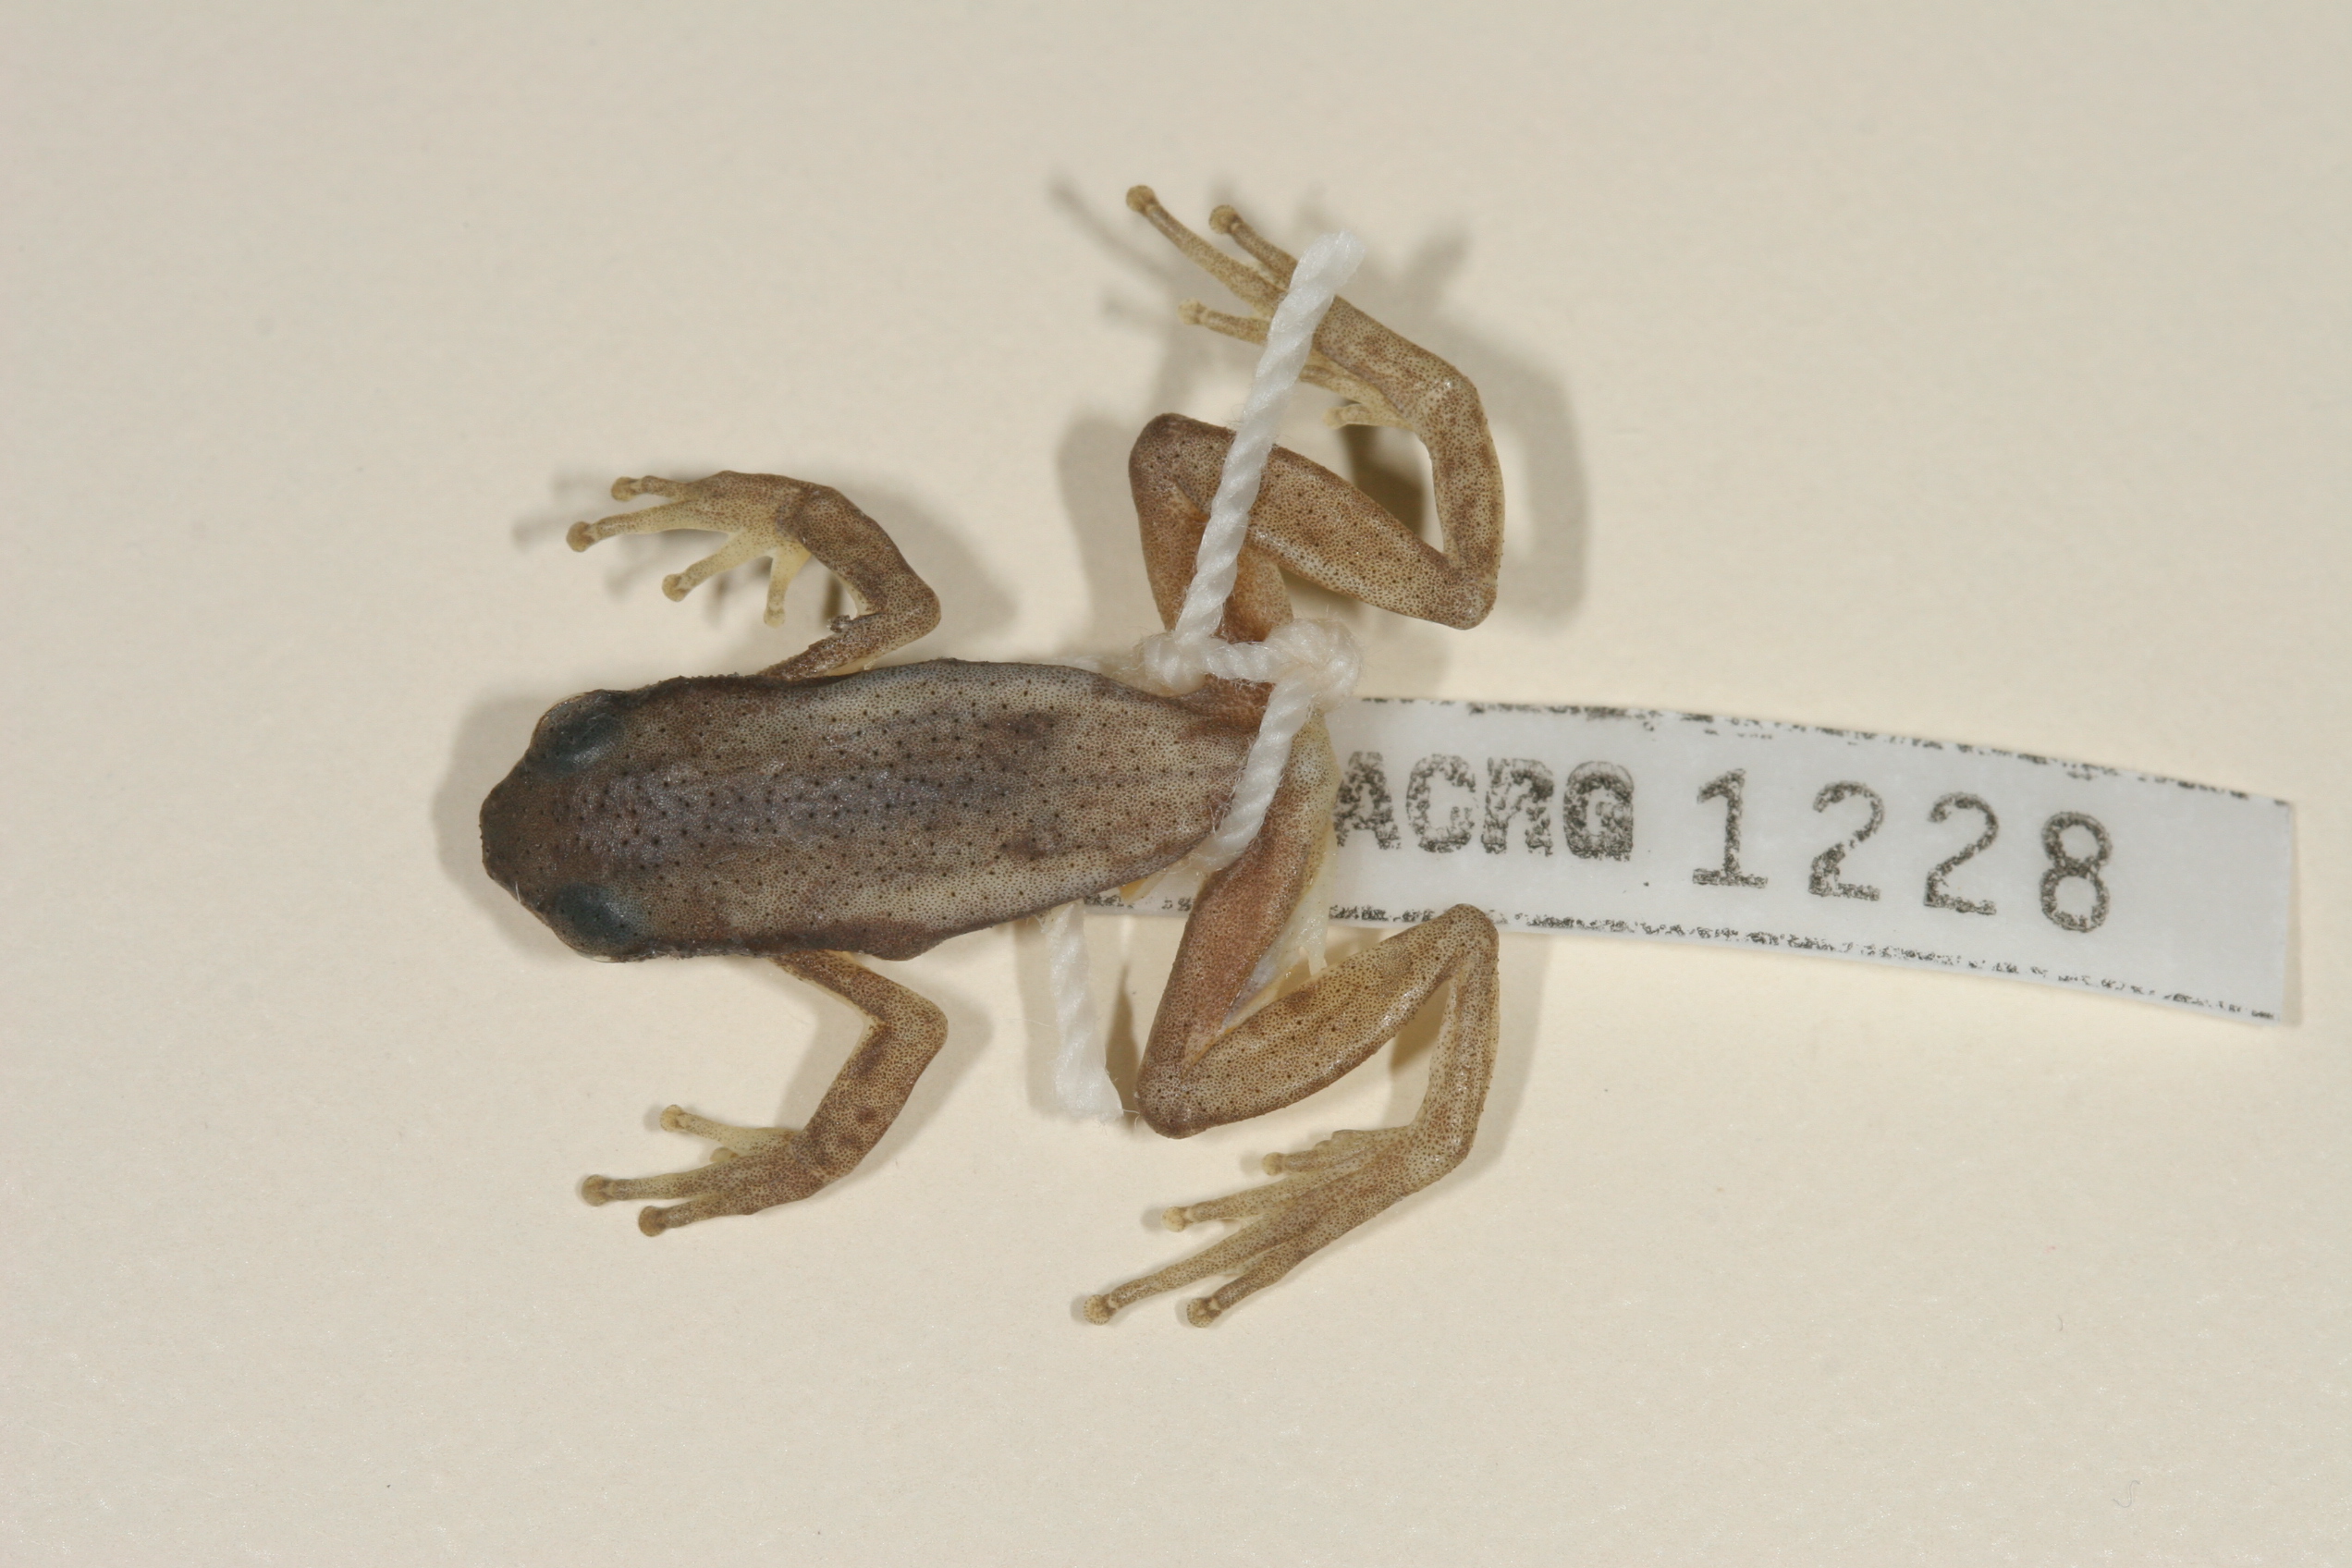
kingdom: Animalia
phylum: Chordata
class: Amphibia
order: Anura
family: Hyperoliidae
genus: Afrixalus
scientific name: Afrixalus spinifrons
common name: Natal spiny reed frog
